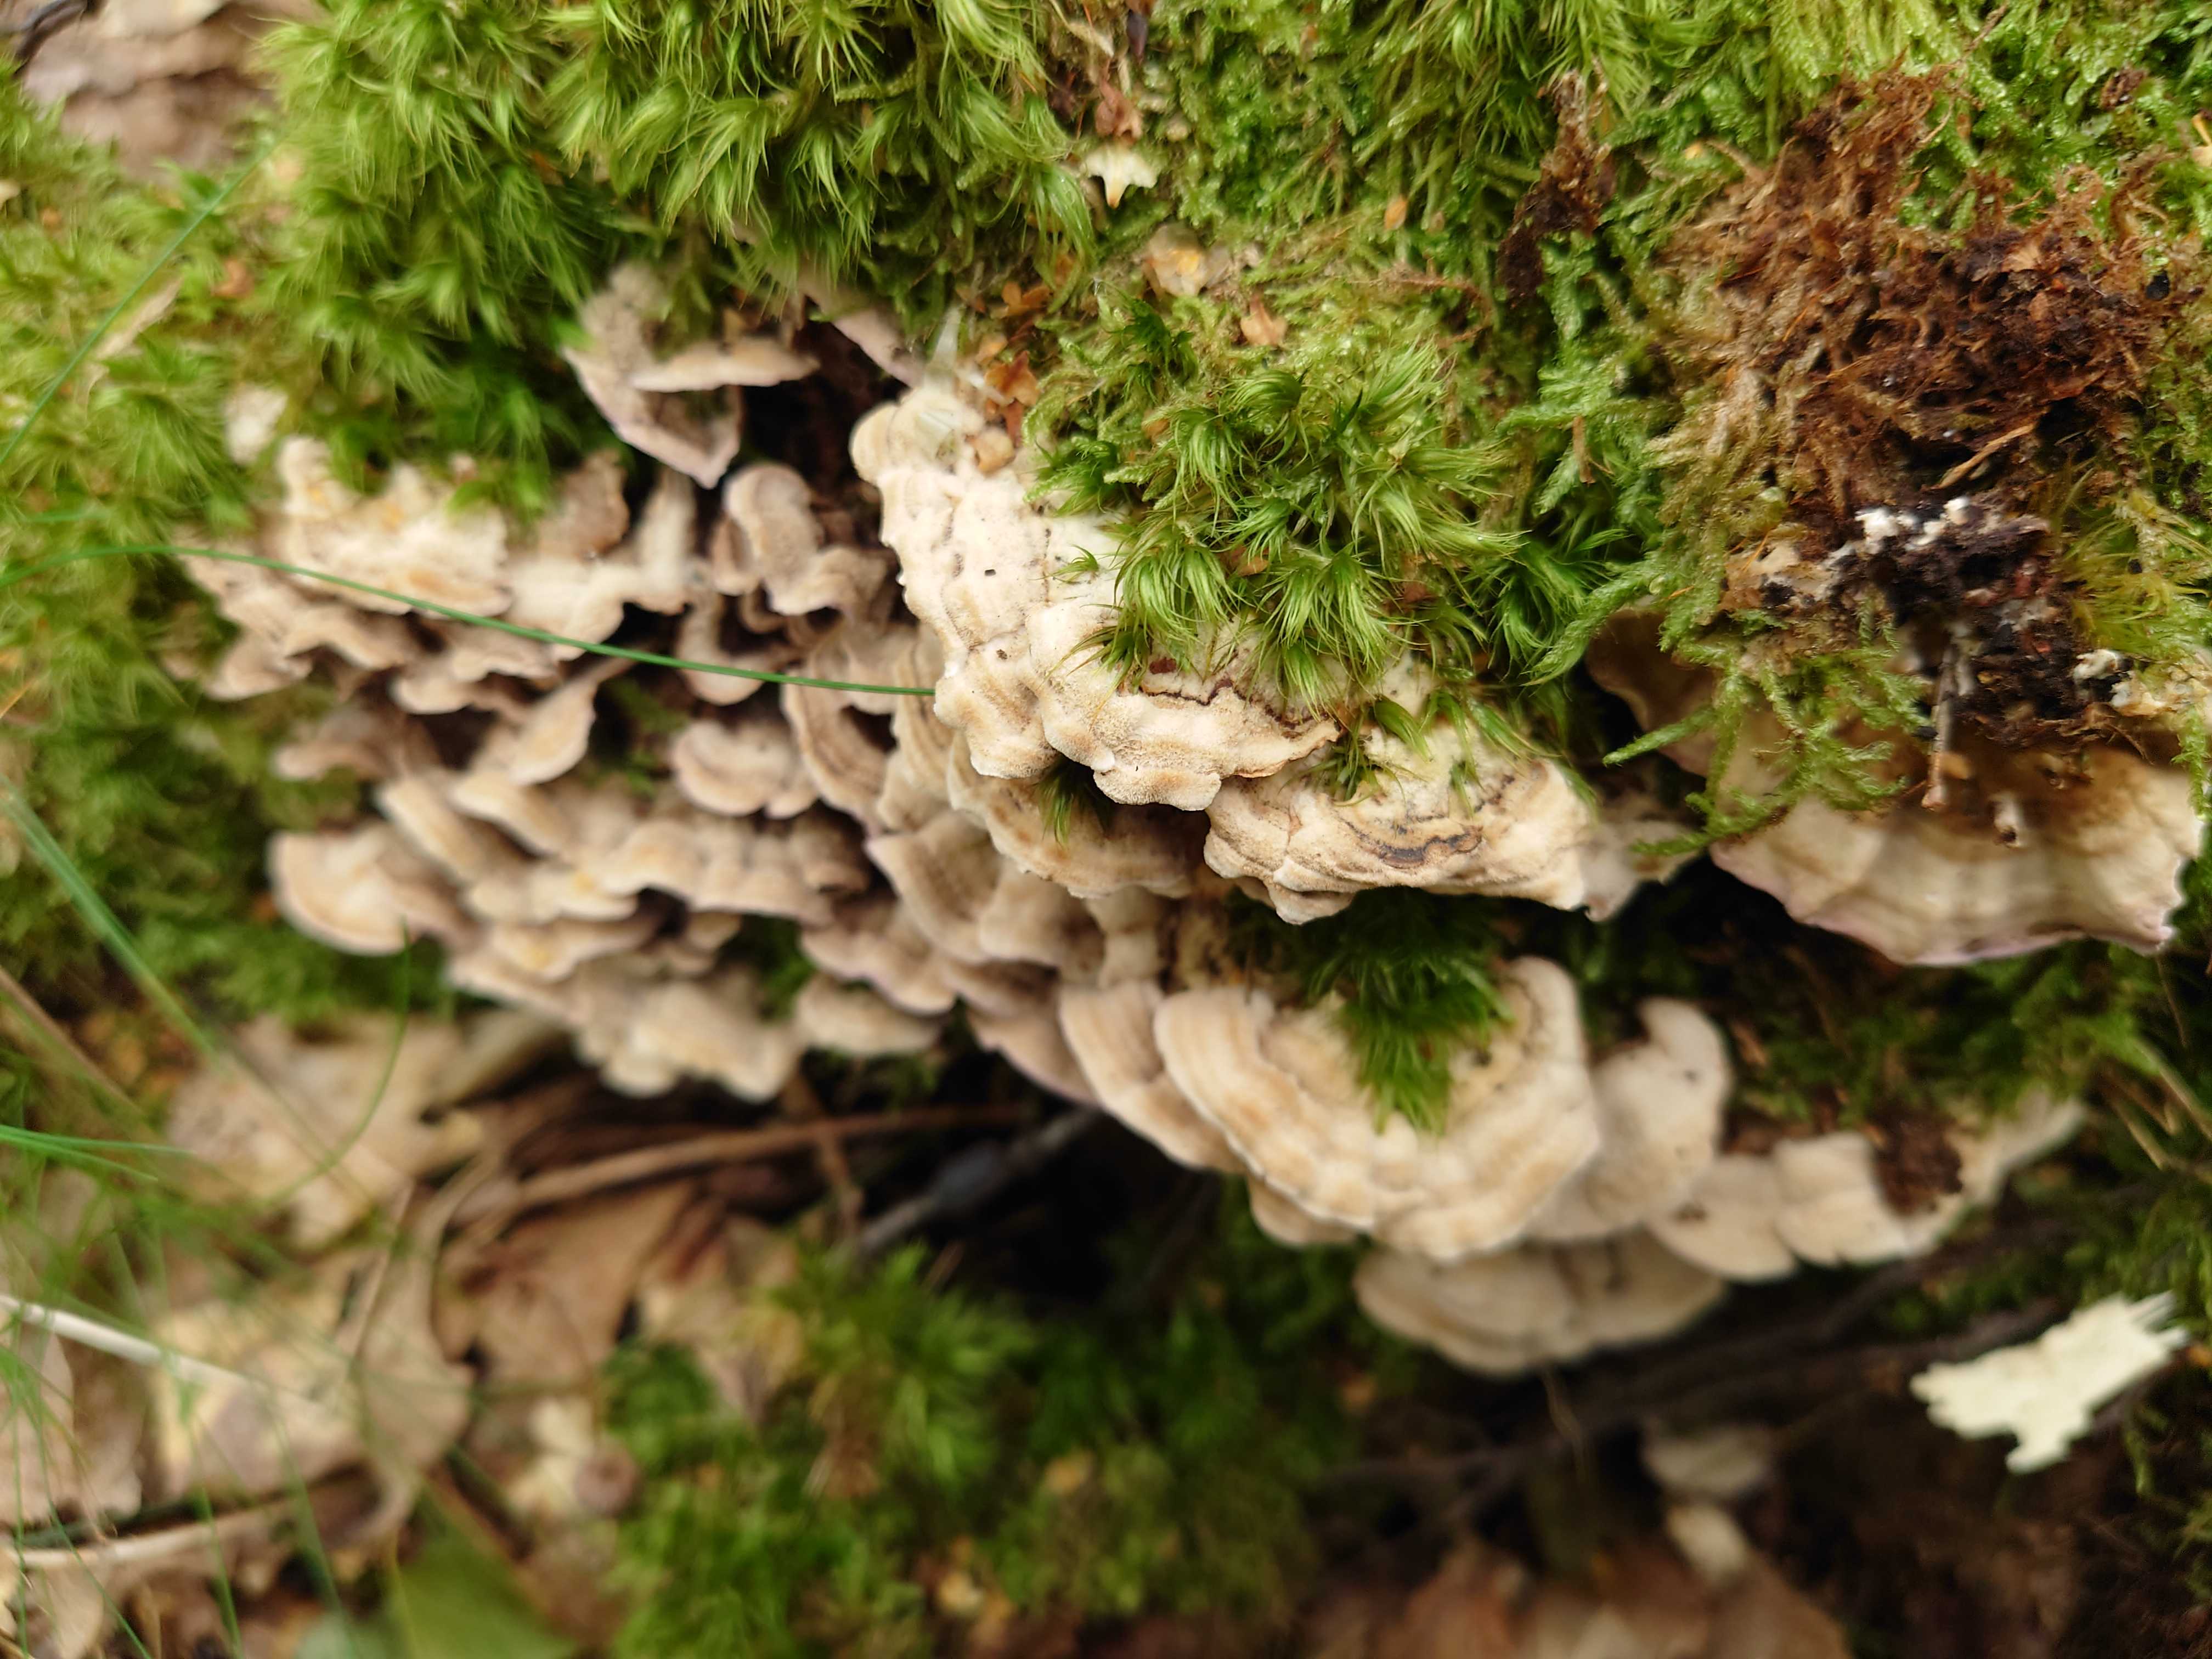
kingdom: Fungi
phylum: Basidiomycota
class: Agaricomycetes
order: Polyporales
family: Polyporaceae
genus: Trametes
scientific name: Trametes ochracea
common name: bæltet læderporesvamp
